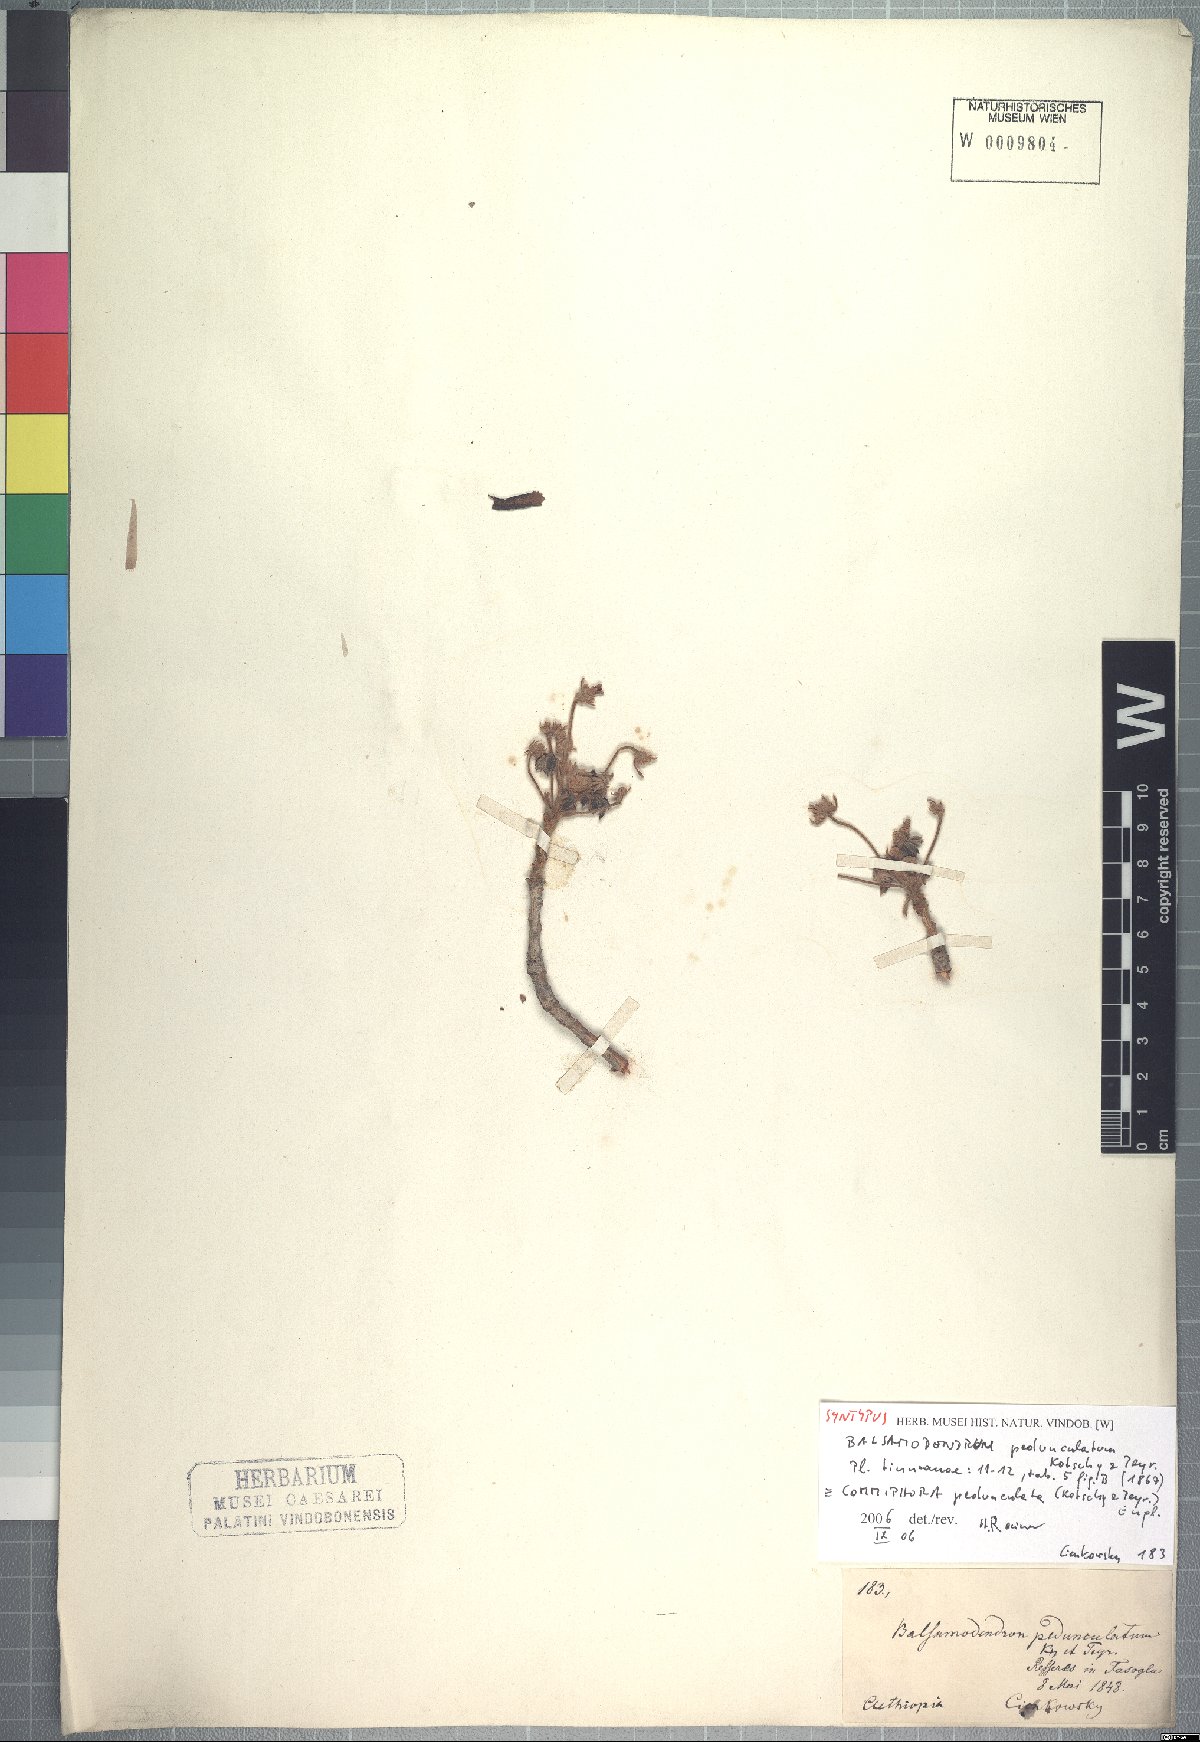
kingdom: Plantae
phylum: Tracheophyta
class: Magnoliopsida
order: Sapindales
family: Burseraceae
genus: Commiphora
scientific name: Commiphora pedunculata
